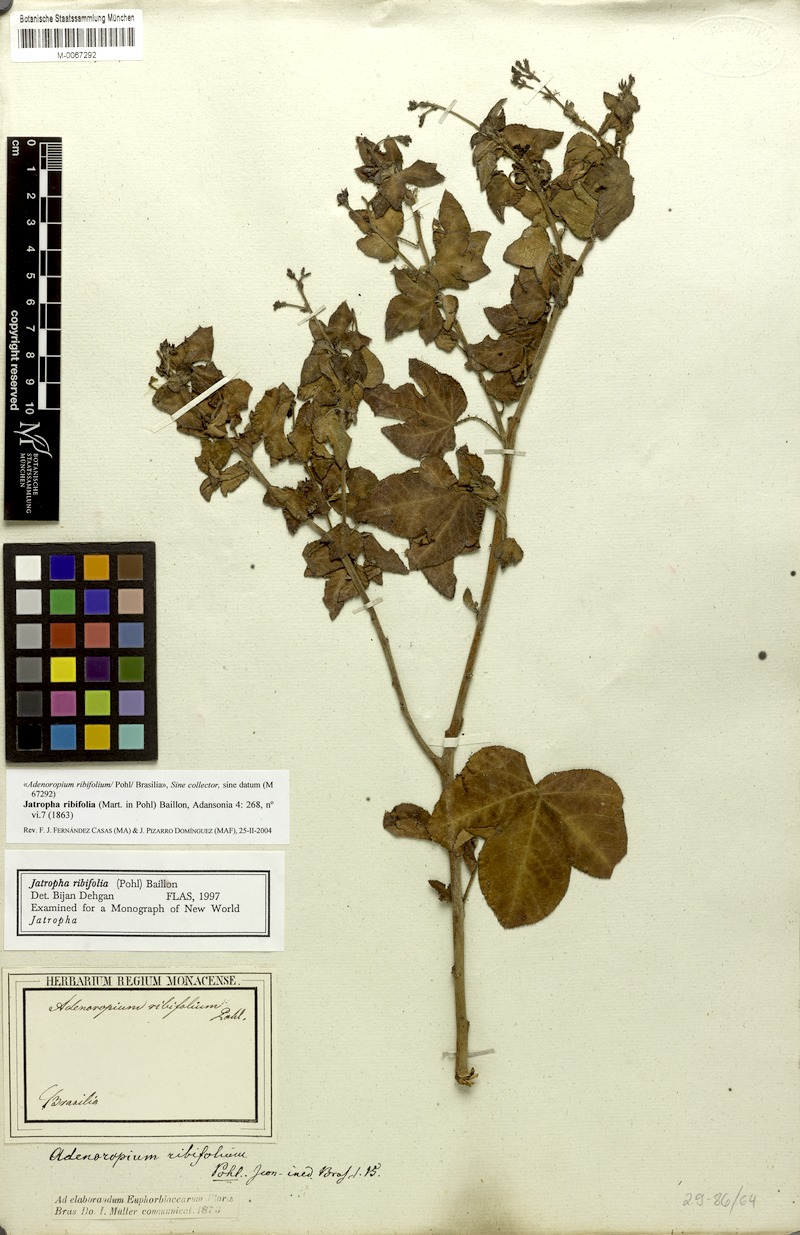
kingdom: Plantae
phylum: Tracheophyta
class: Magnoliopsida
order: Malpighiales
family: Euphorbiaceae
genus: Jatropha
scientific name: Jatropha ribifolia
